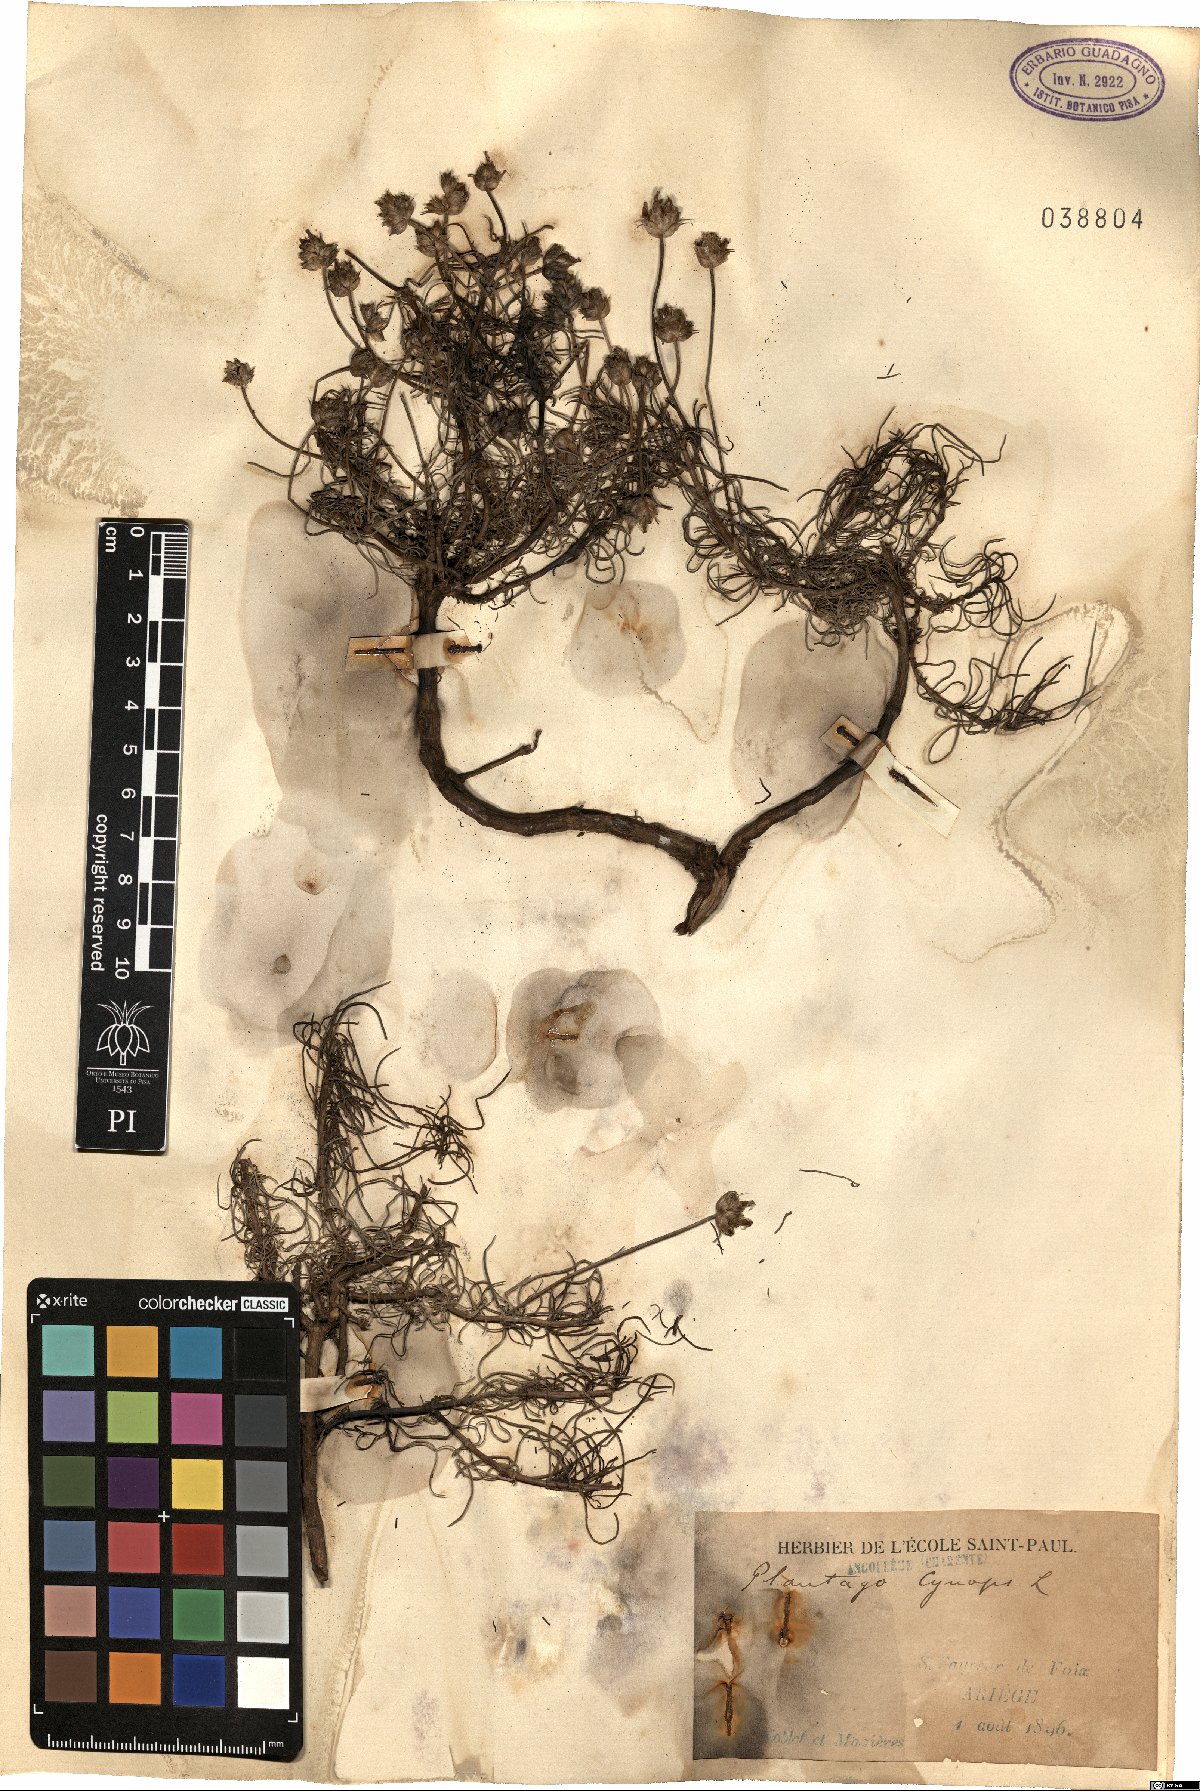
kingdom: Plantae
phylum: Tracheophyta
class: Magnoliopsida
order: Lamiales
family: Plantaginaceae
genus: Plantago
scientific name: Plantago sempervirens
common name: Shrubby plantain
